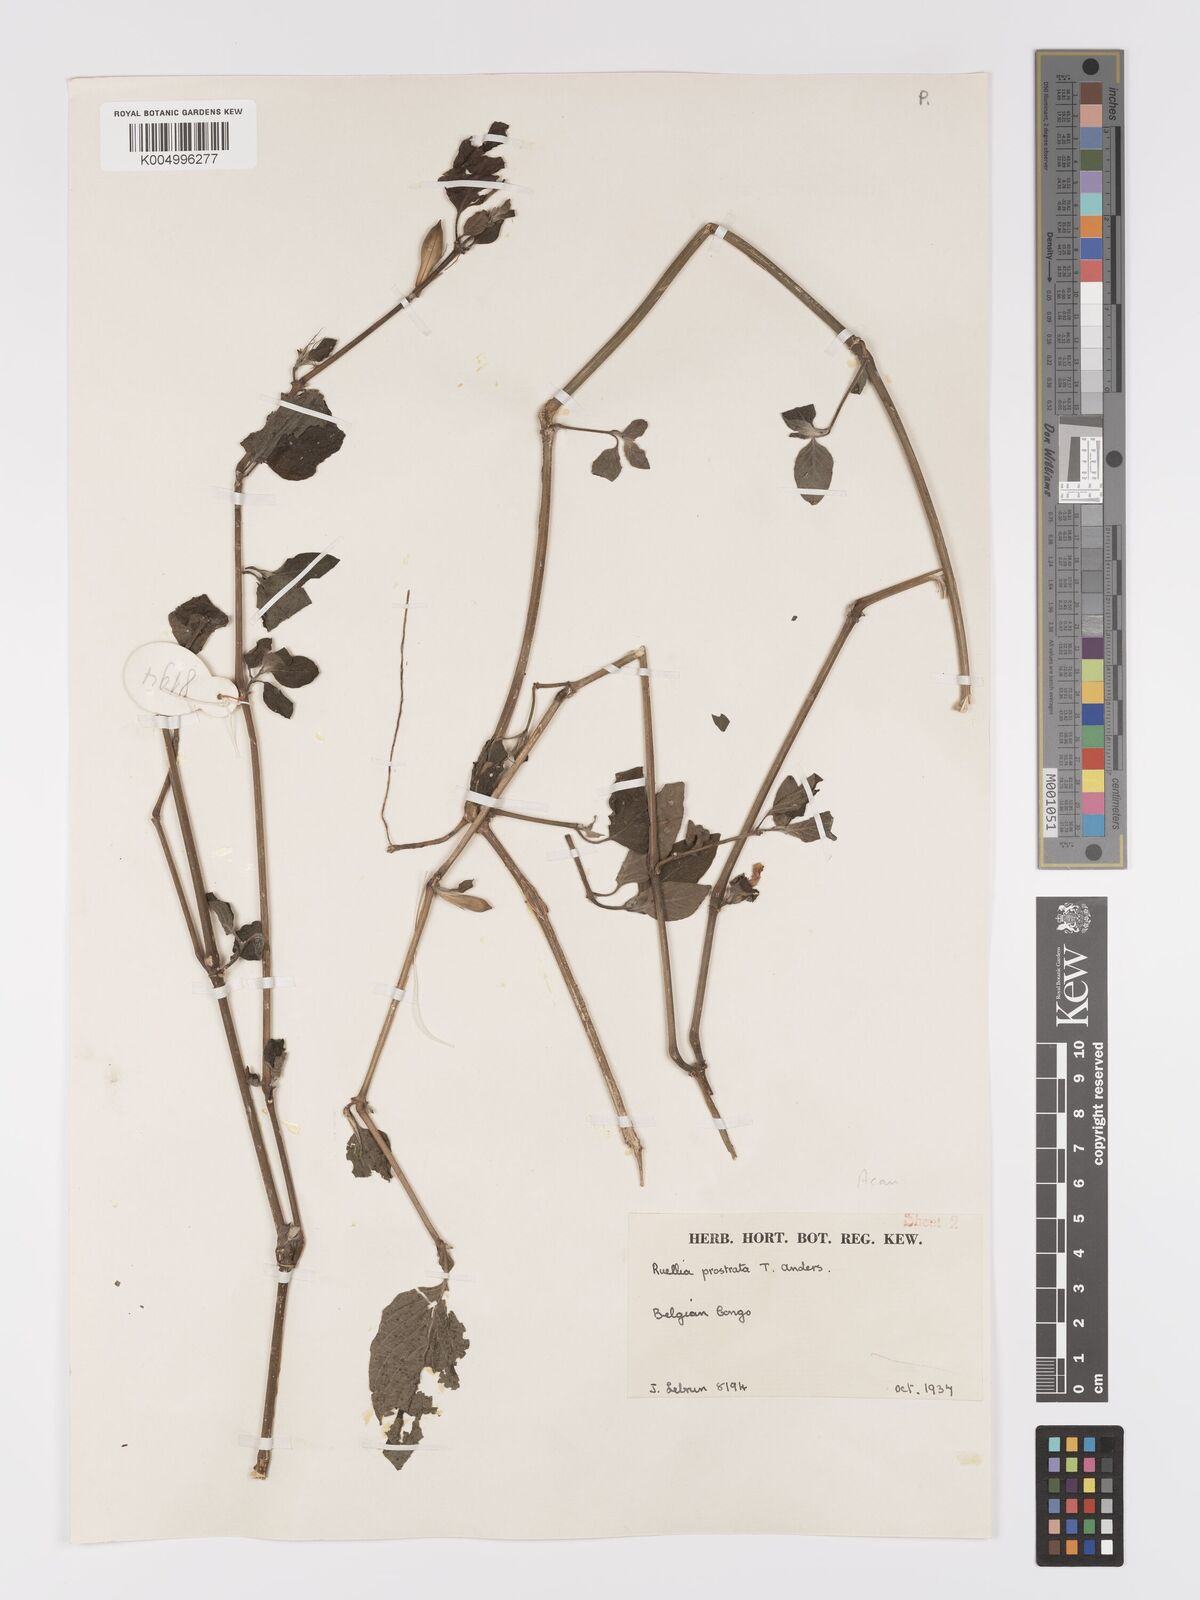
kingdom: Plantae
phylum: Tracheophyta
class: Magnoliopsida
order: Lamiales
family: Acanthaceae
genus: Ruellia
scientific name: Ruellia
